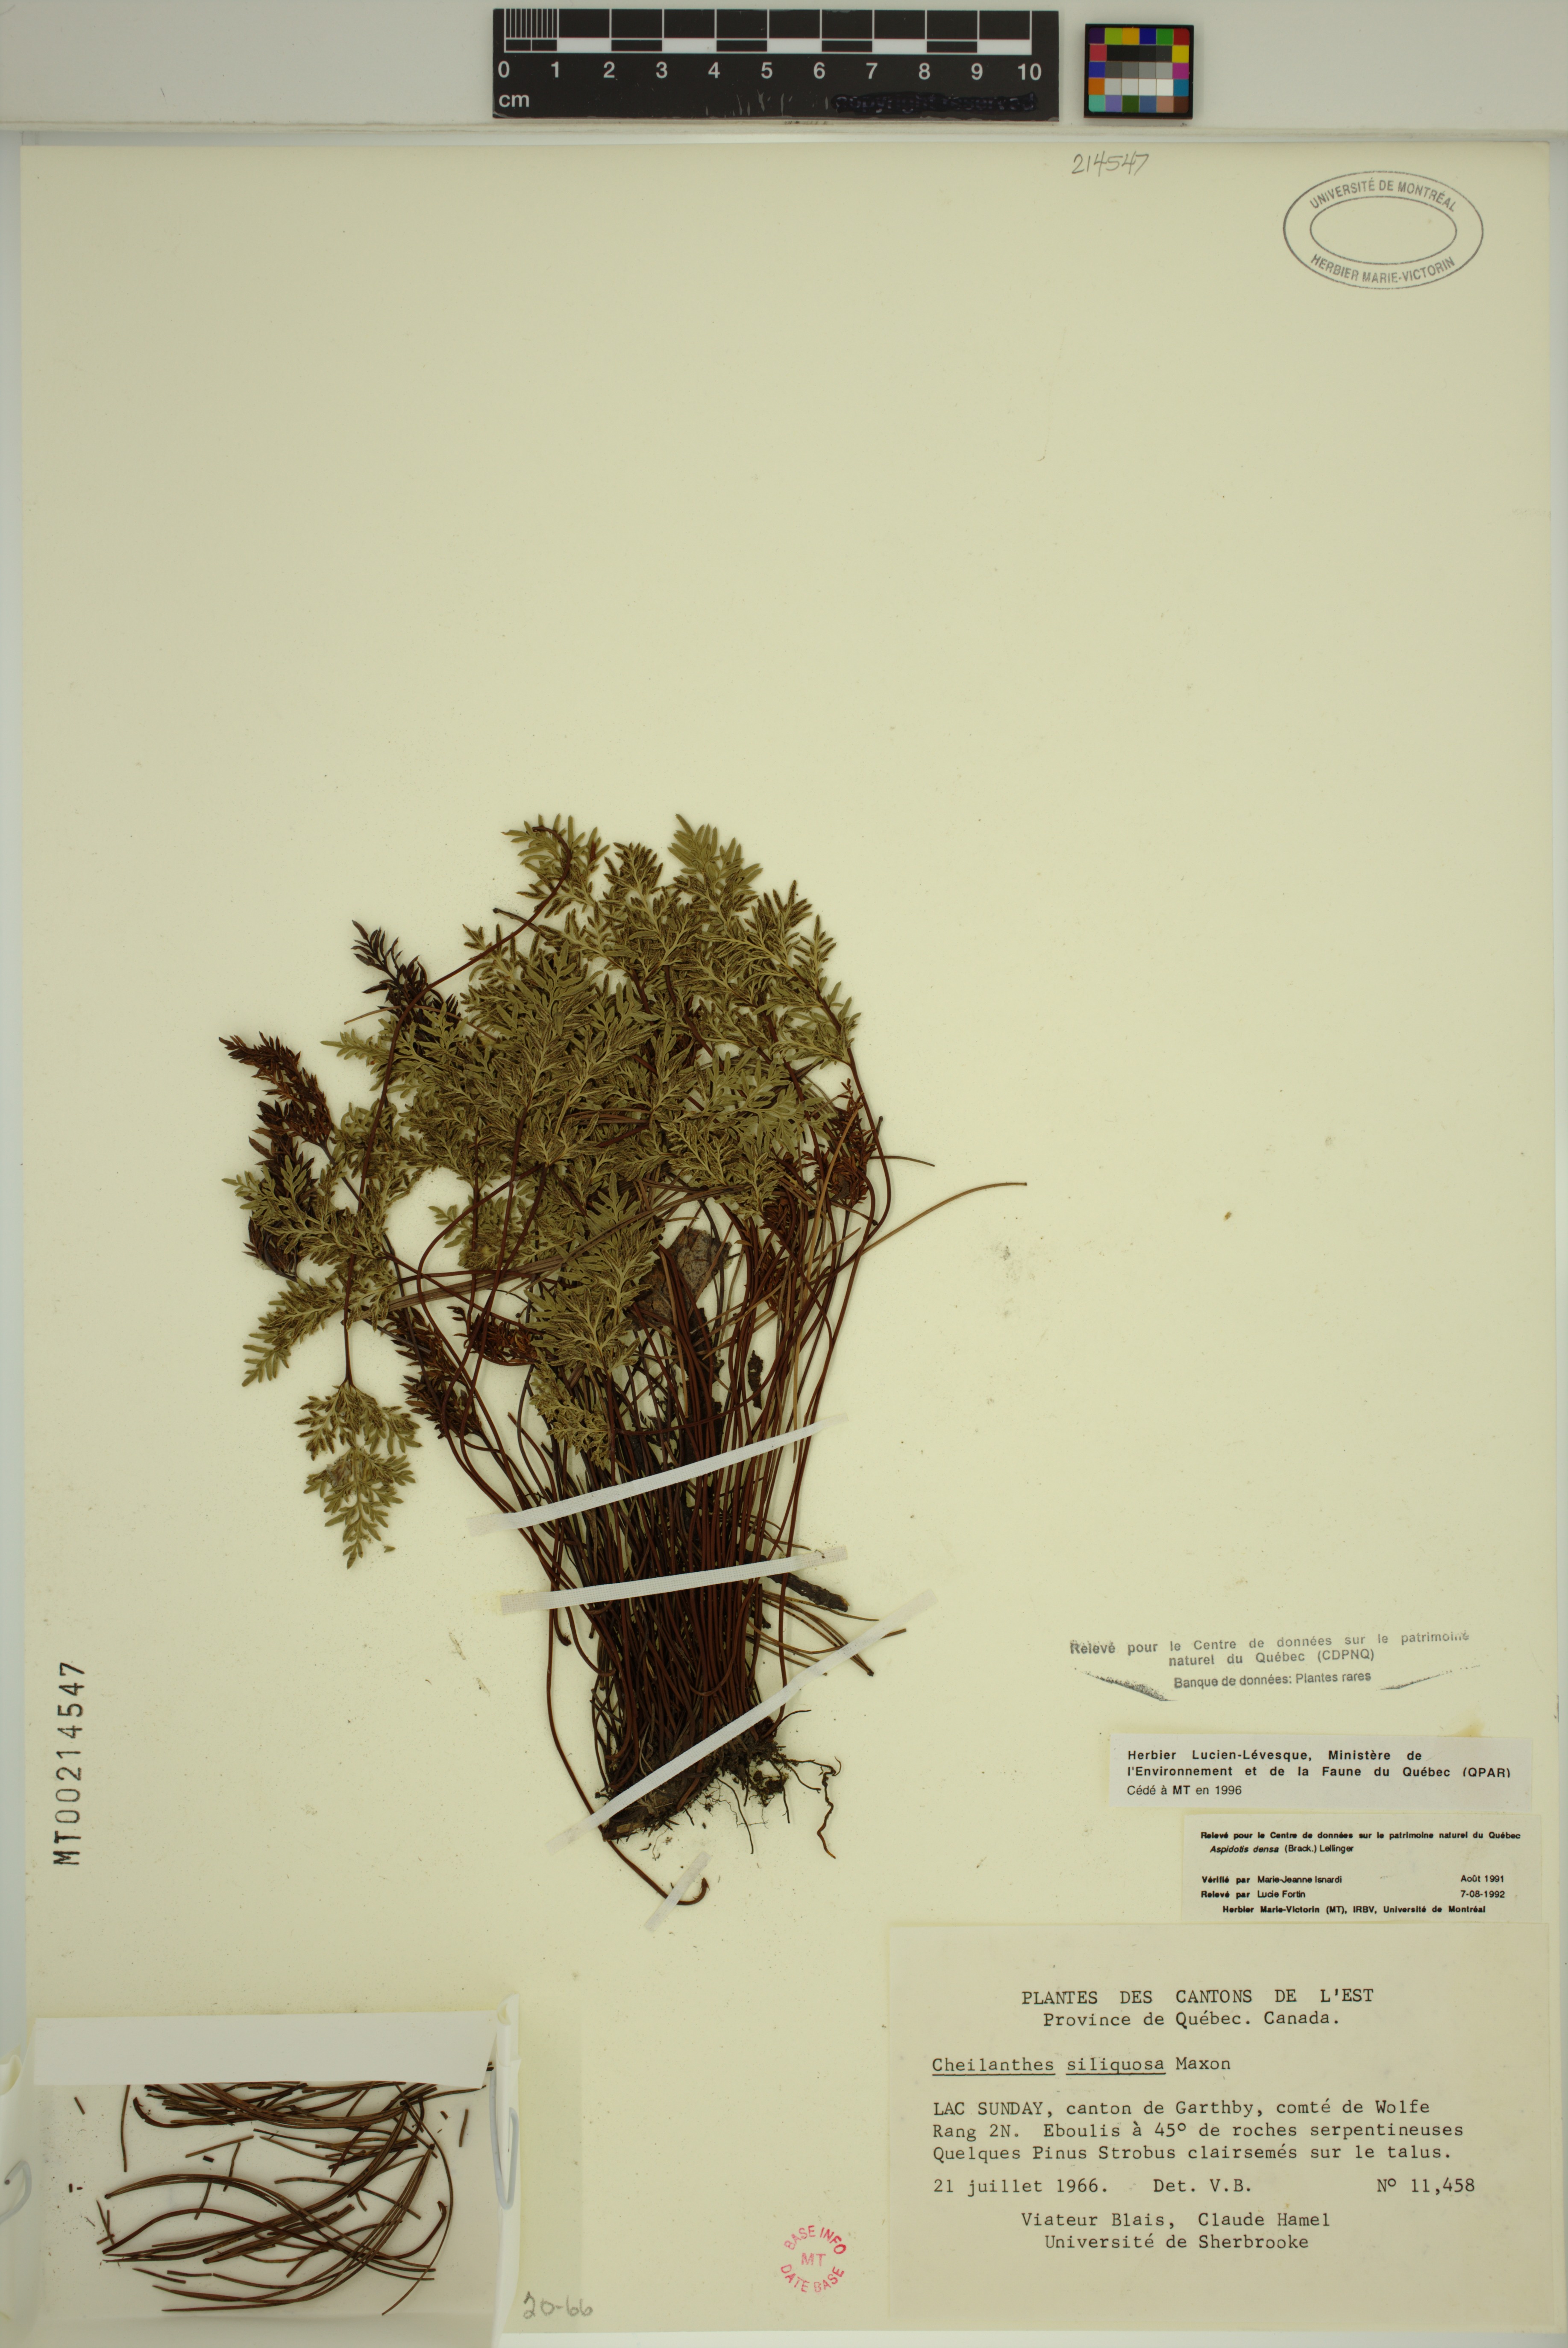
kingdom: Plantae
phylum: Tracheophyta
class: Polypodiopsida
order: Polypodiales
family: Pteridaceae
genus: Aspidotis
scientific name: Aspidotis densa
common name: Indian's dream
